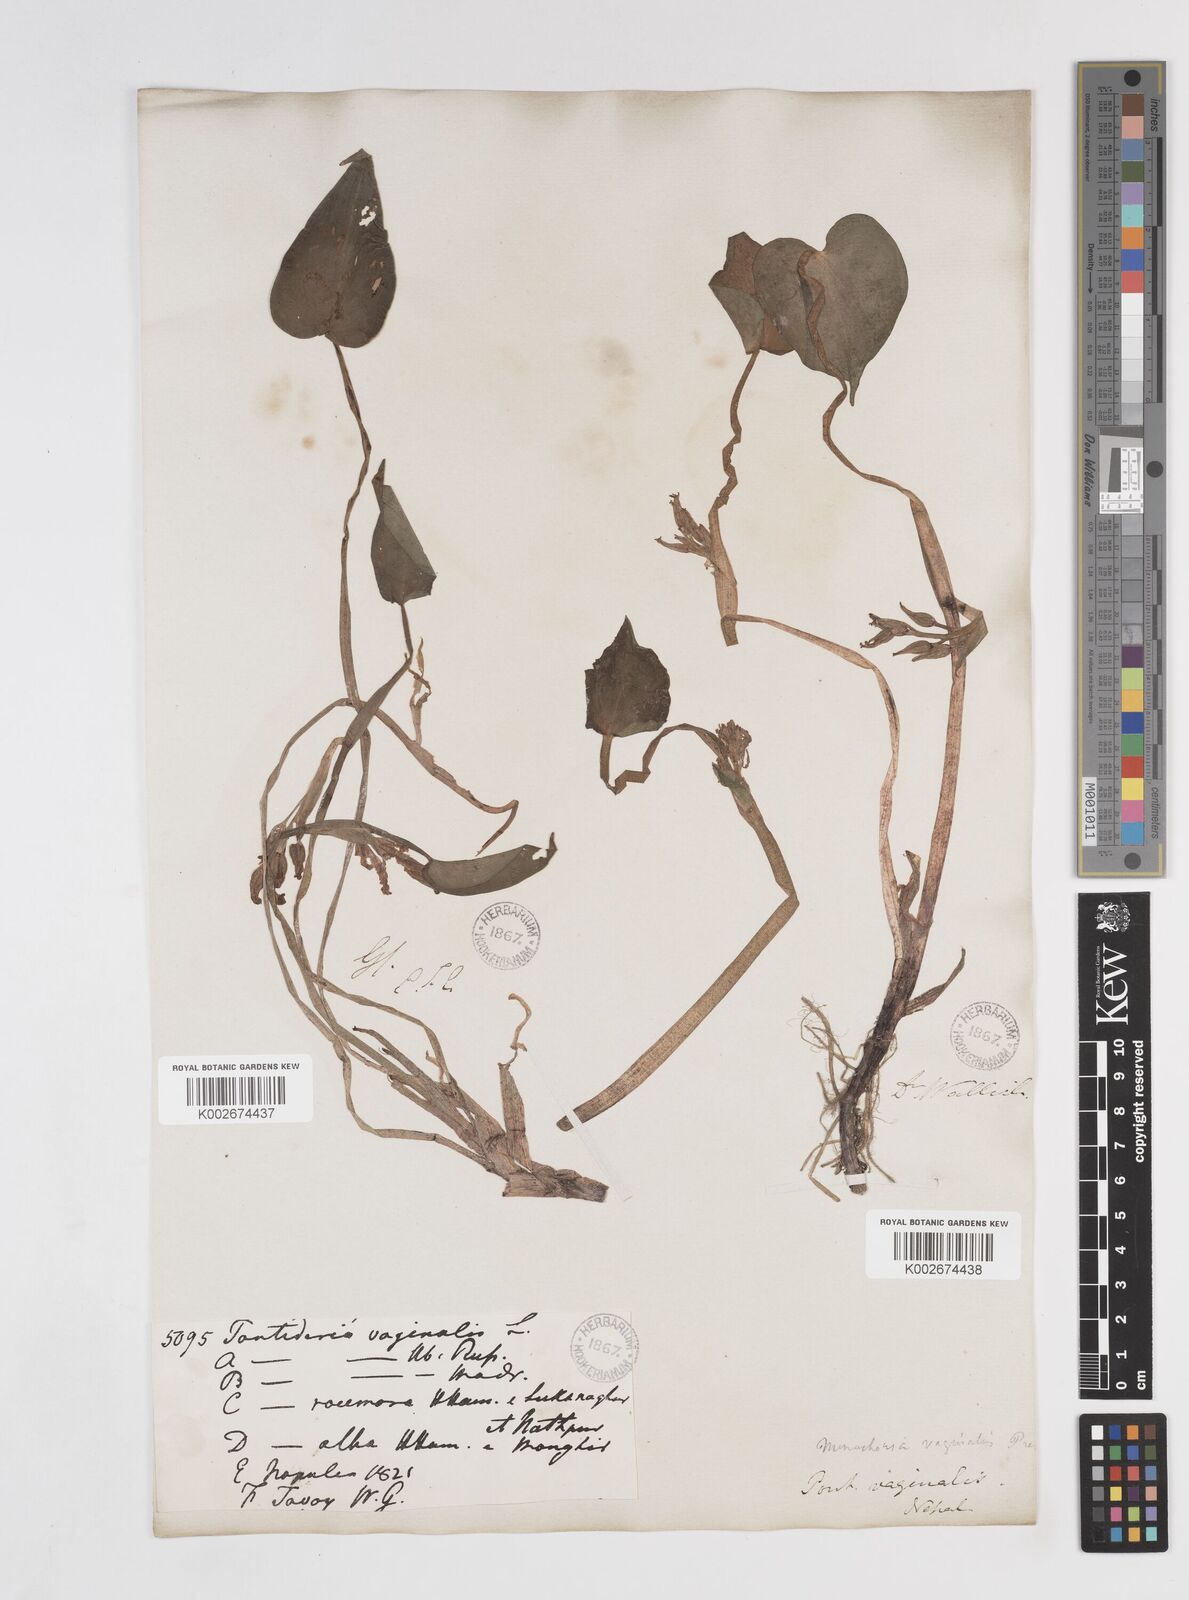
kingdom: Plantae
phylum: Tracheophyta
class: Liliopsida
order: Commelinales
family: Pontederiaceae
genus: Pontederia
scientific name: Pontederia vaginalis
